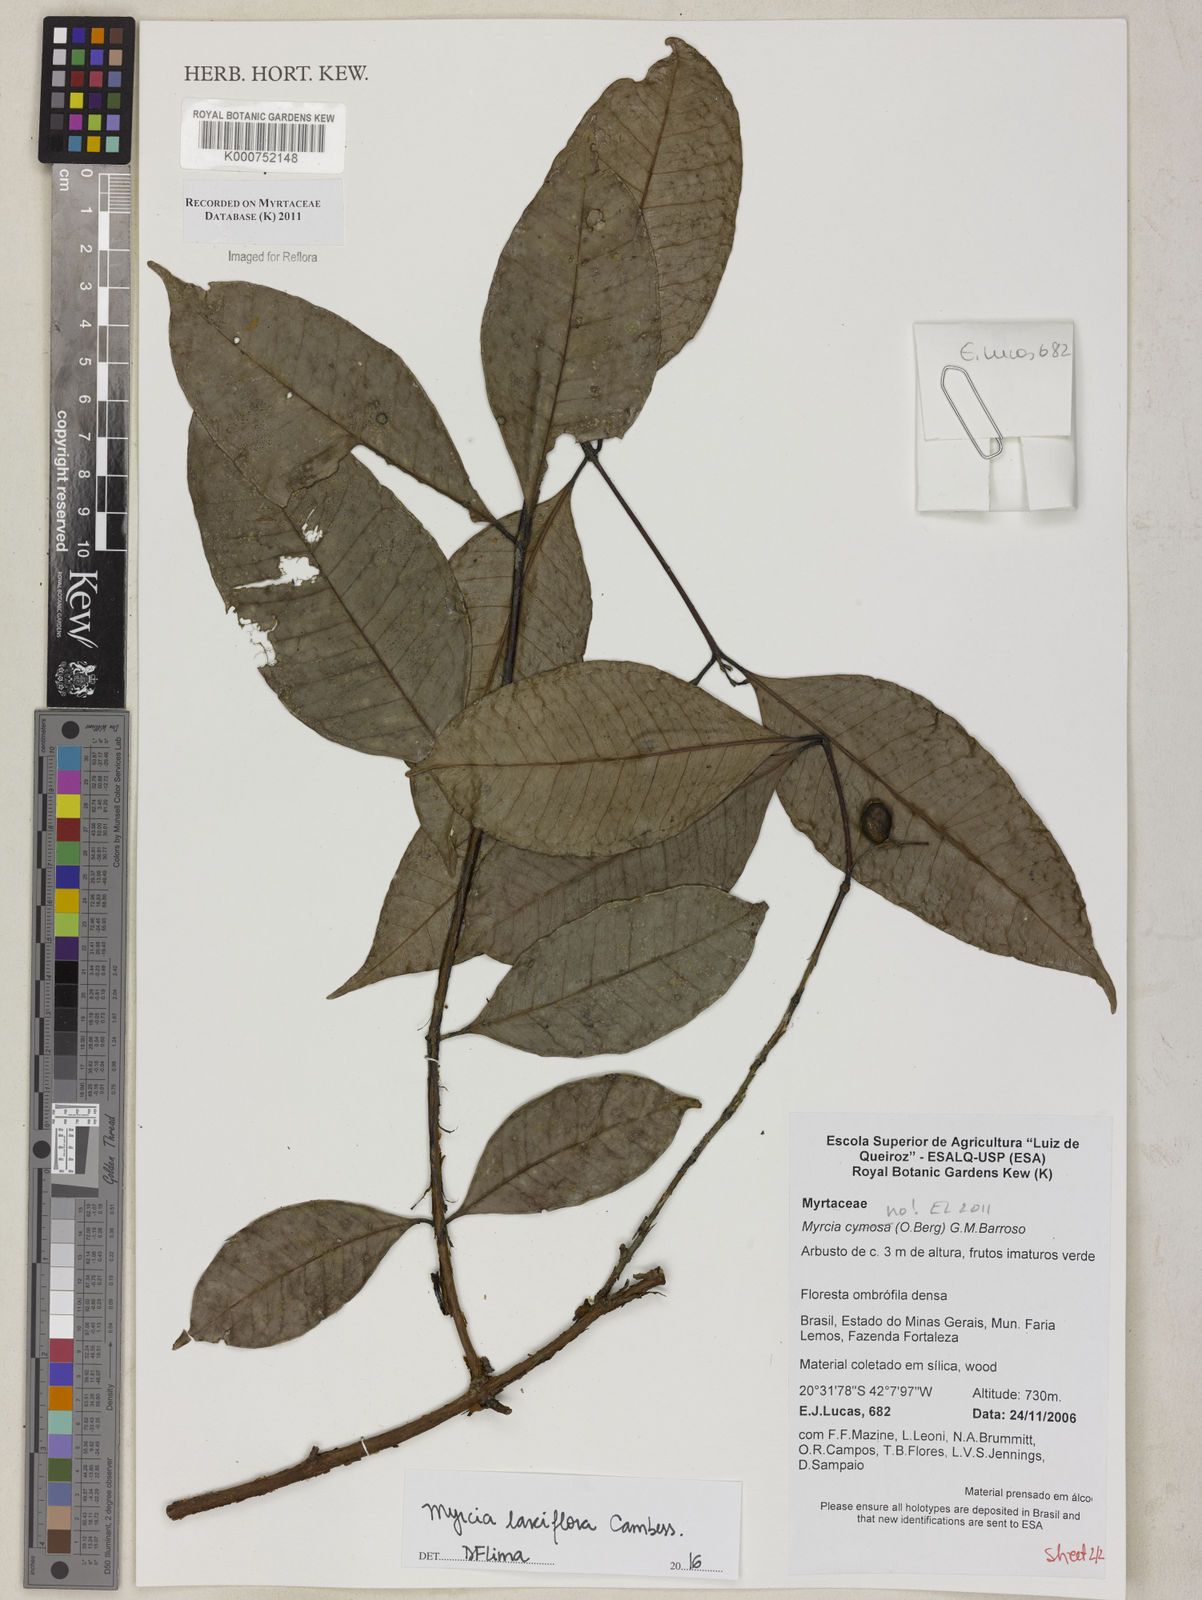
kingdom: Plantae
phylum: Tracheophyta
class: Magnoliopsida
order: Myrtales
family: Myrtaceae
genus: Myrcia
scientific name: Myrcia laxiflora
